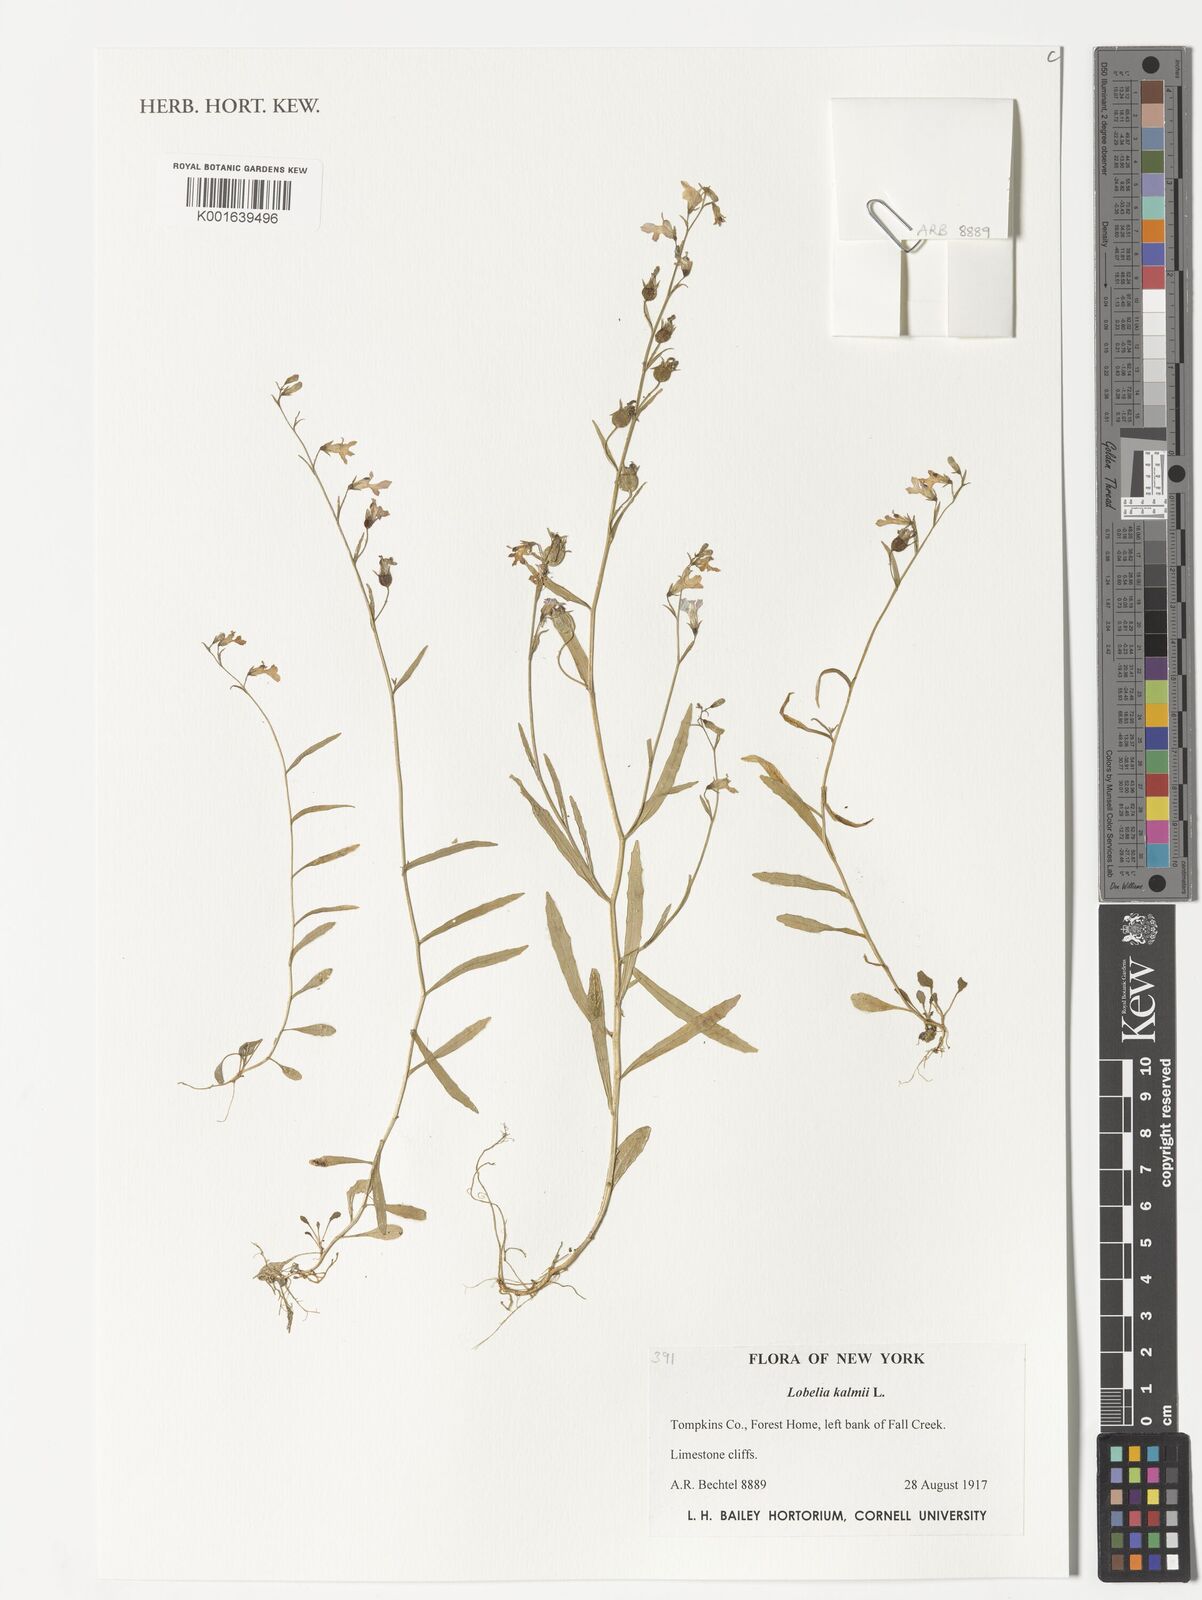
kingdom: Plantae
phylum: Tracheophyta
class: Magnoliopsida
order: Asterales
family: Campanulaceae
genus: Lobelia
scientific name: Lobelia kalmii
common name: Kalm's lobelia
